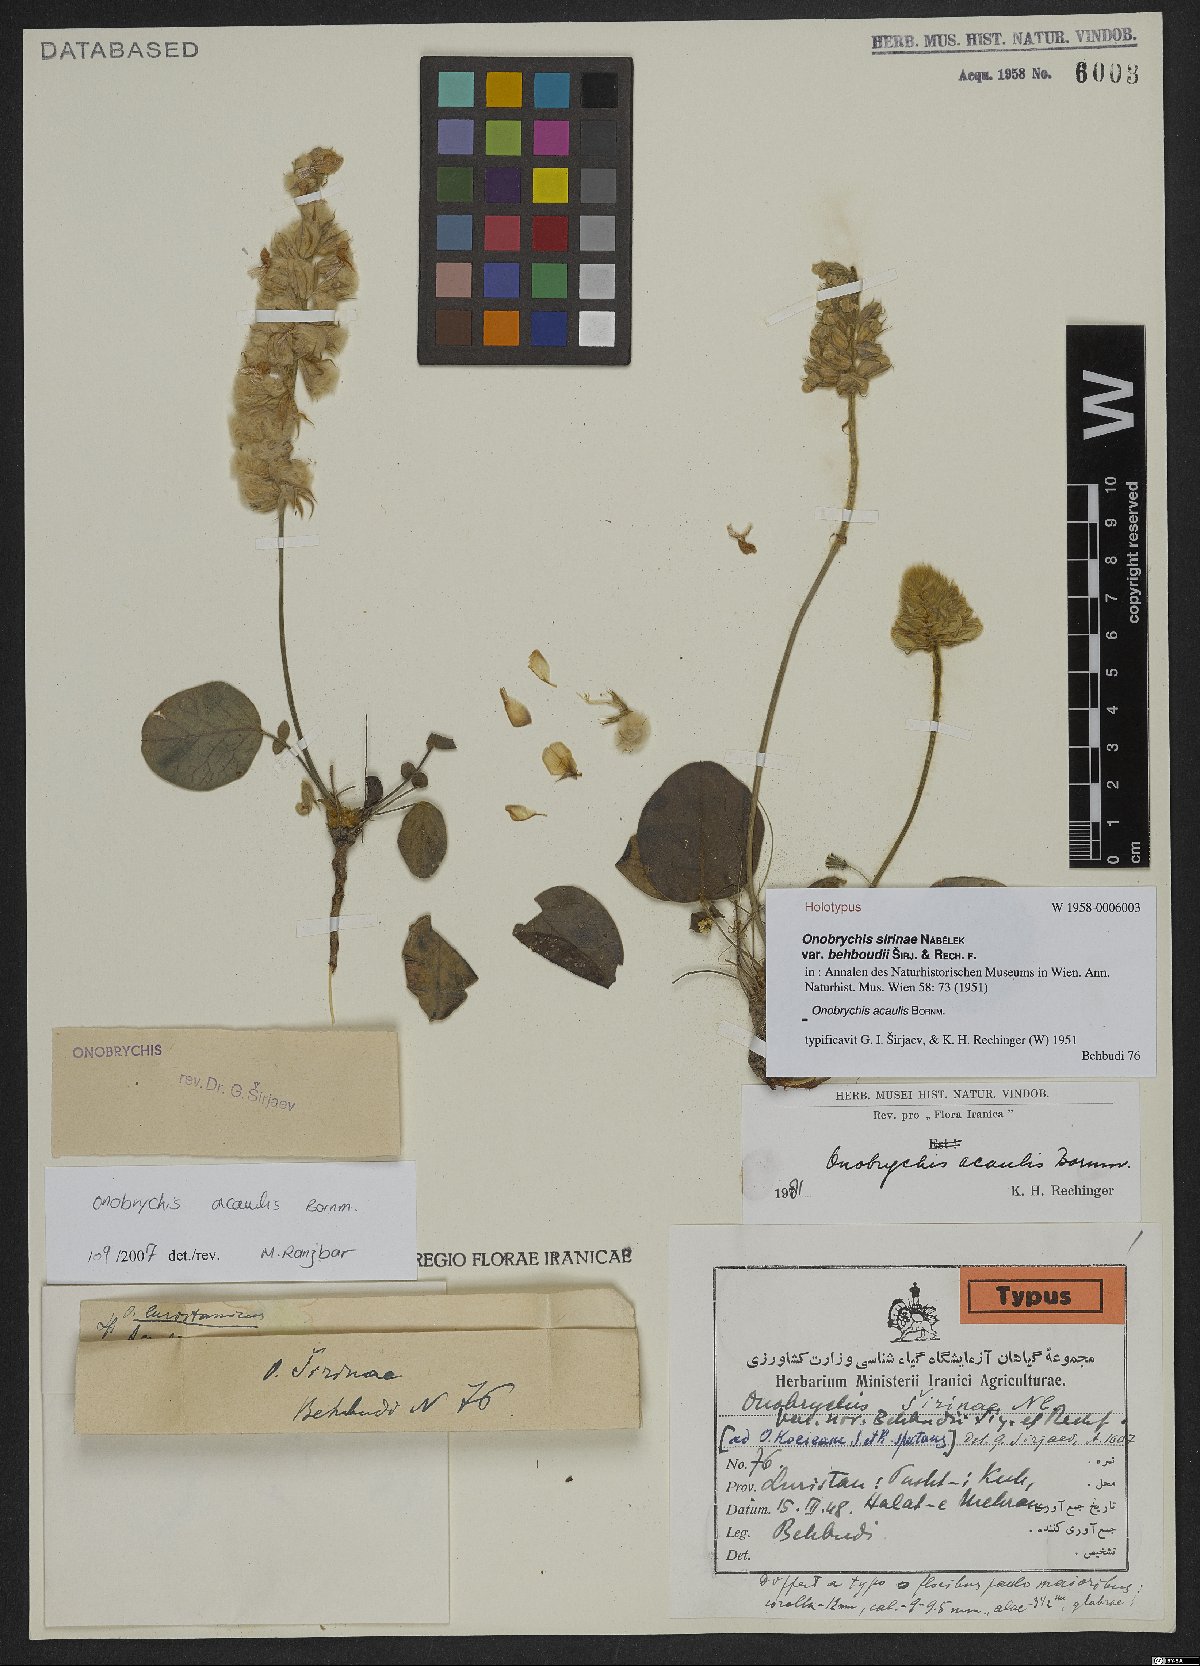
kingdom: Plantae
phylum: Tracheophyta
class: Magnoliopsida
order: Fabales
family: Fabaceae
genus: Onobrychis
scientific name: Onobrychis acaulis
